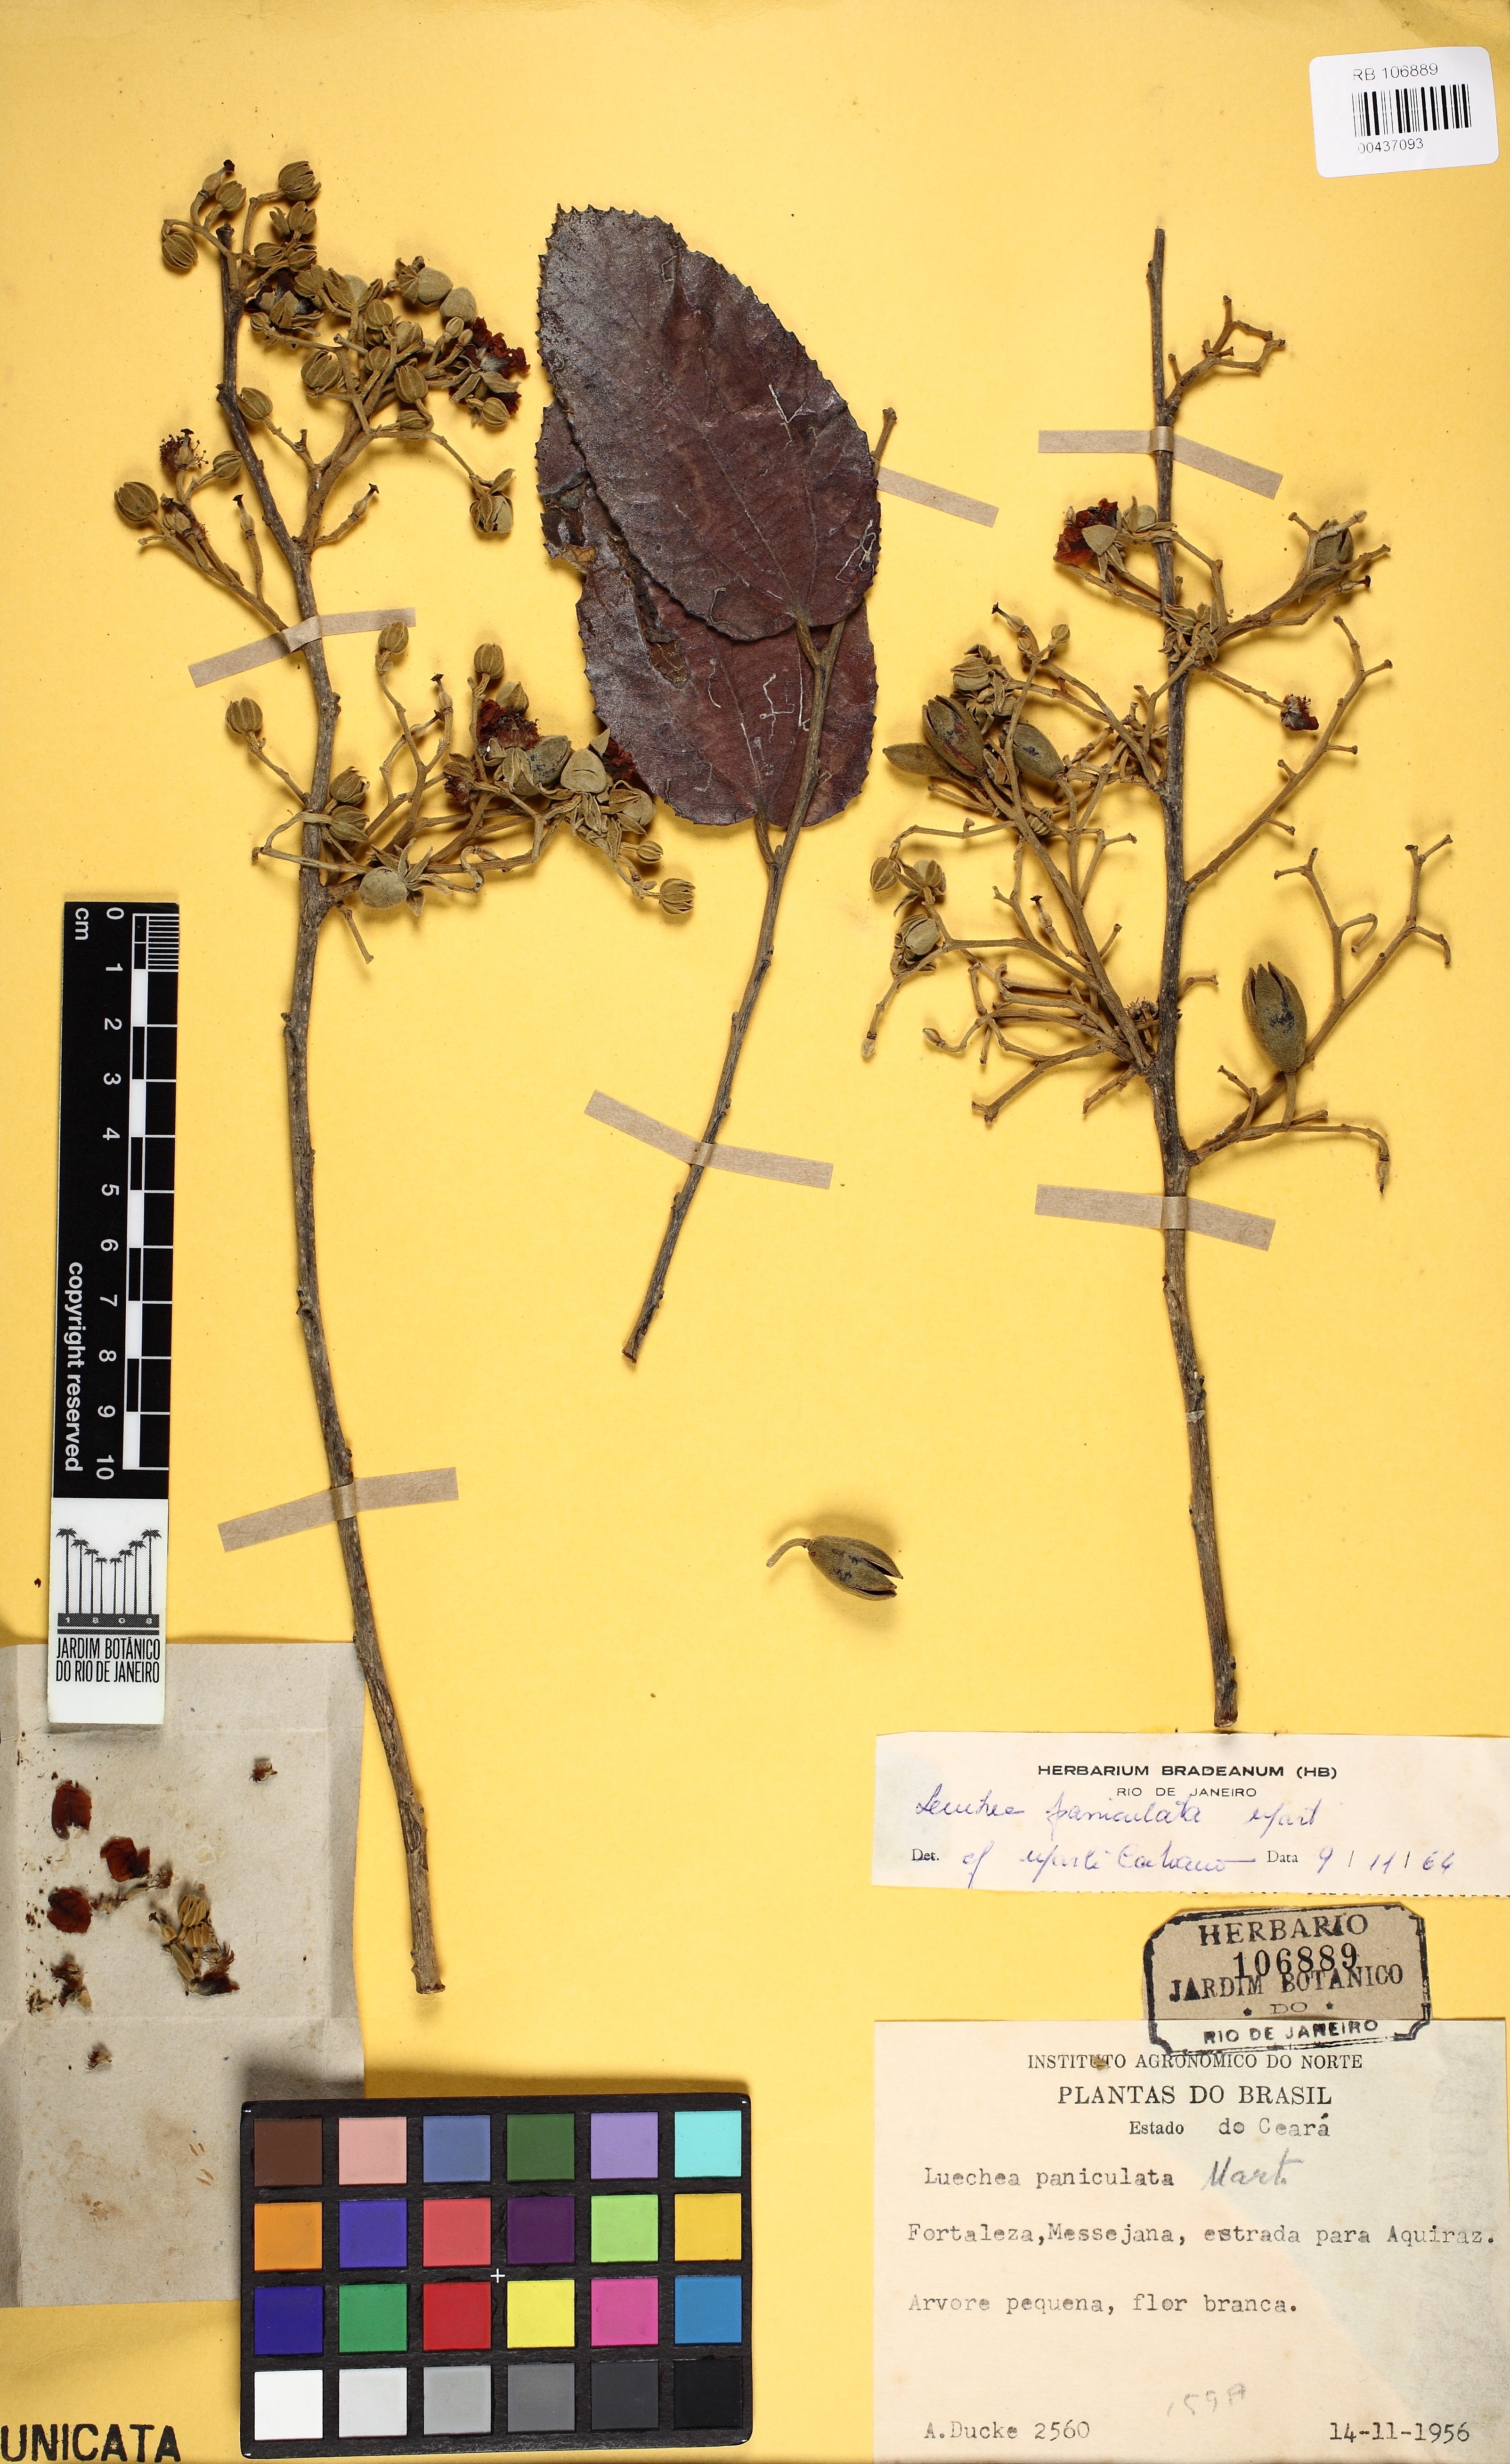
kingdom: Plantae
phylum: Tracheophyta
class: Magnoliopsida
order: Malvales
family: Malvaceae
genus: Luehea
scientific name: Luehea paniculata
